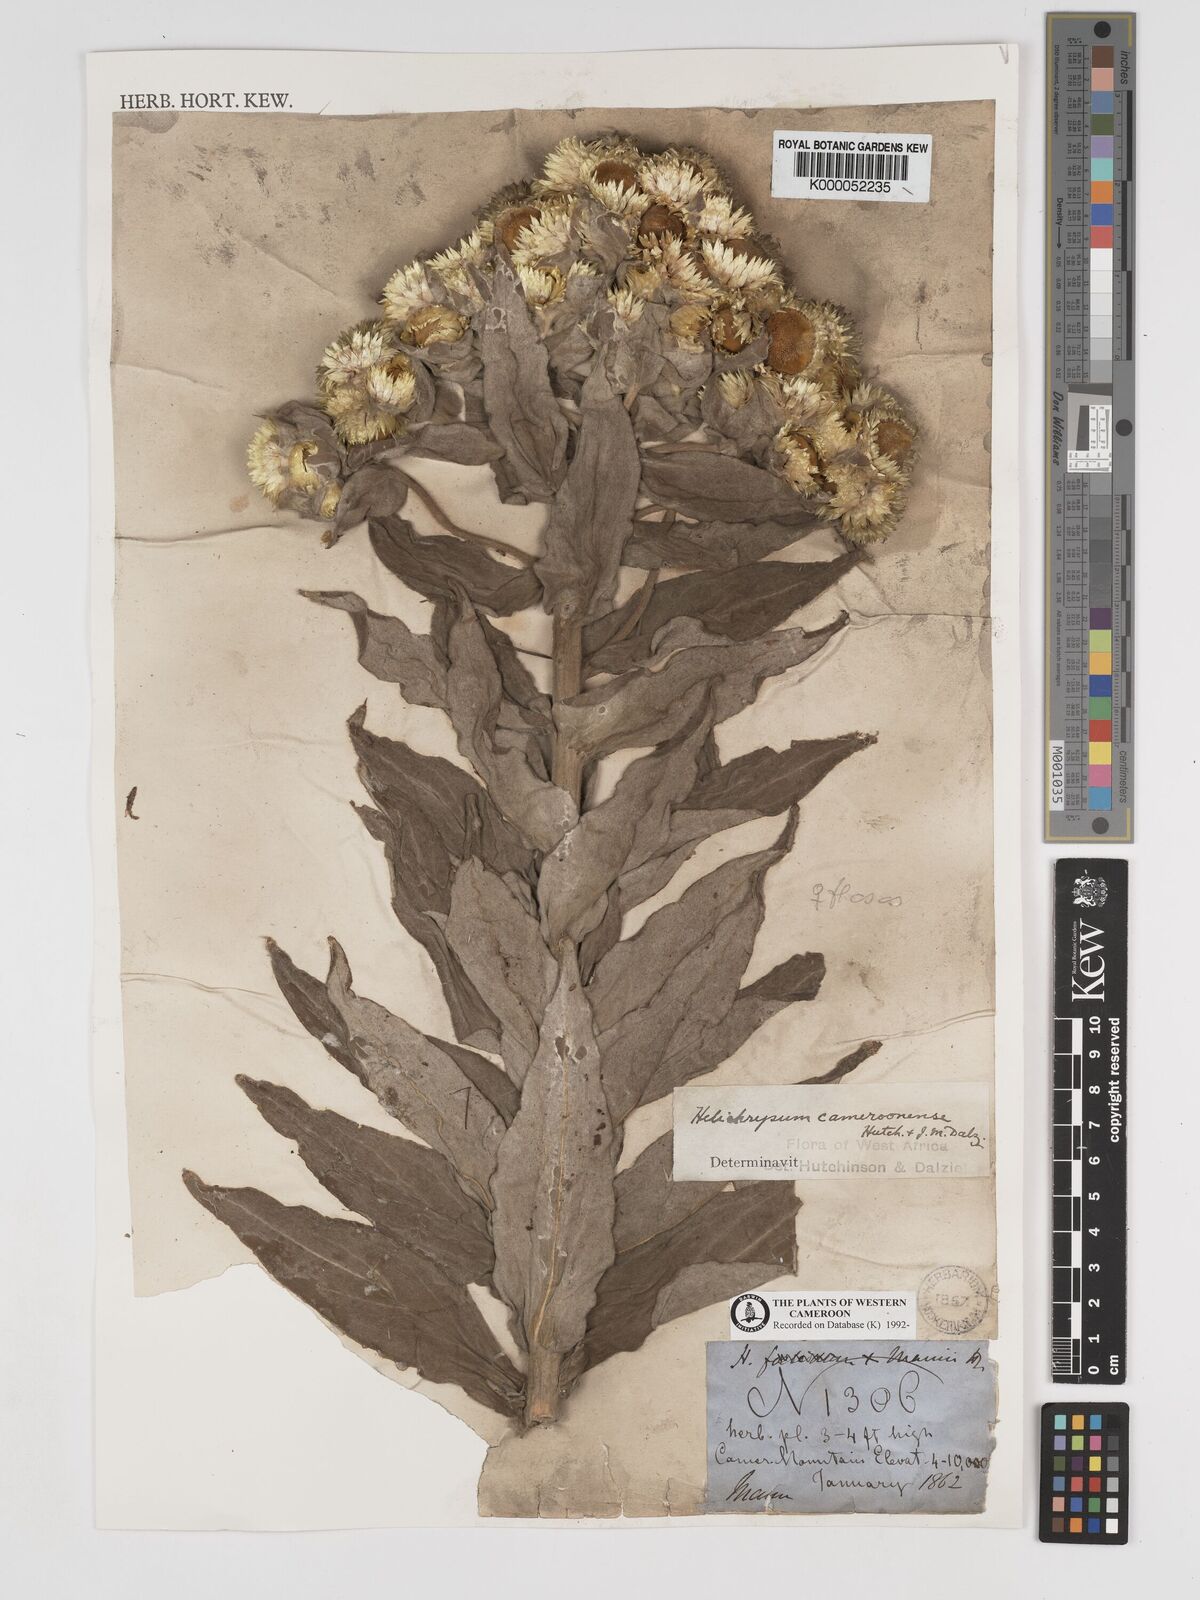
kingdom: Plantae
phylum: Tracheophyta
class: Magnoliopsida
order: Asterales
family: Asteraceae
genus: Helichrysum
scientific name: Helichrysum cameroonense
